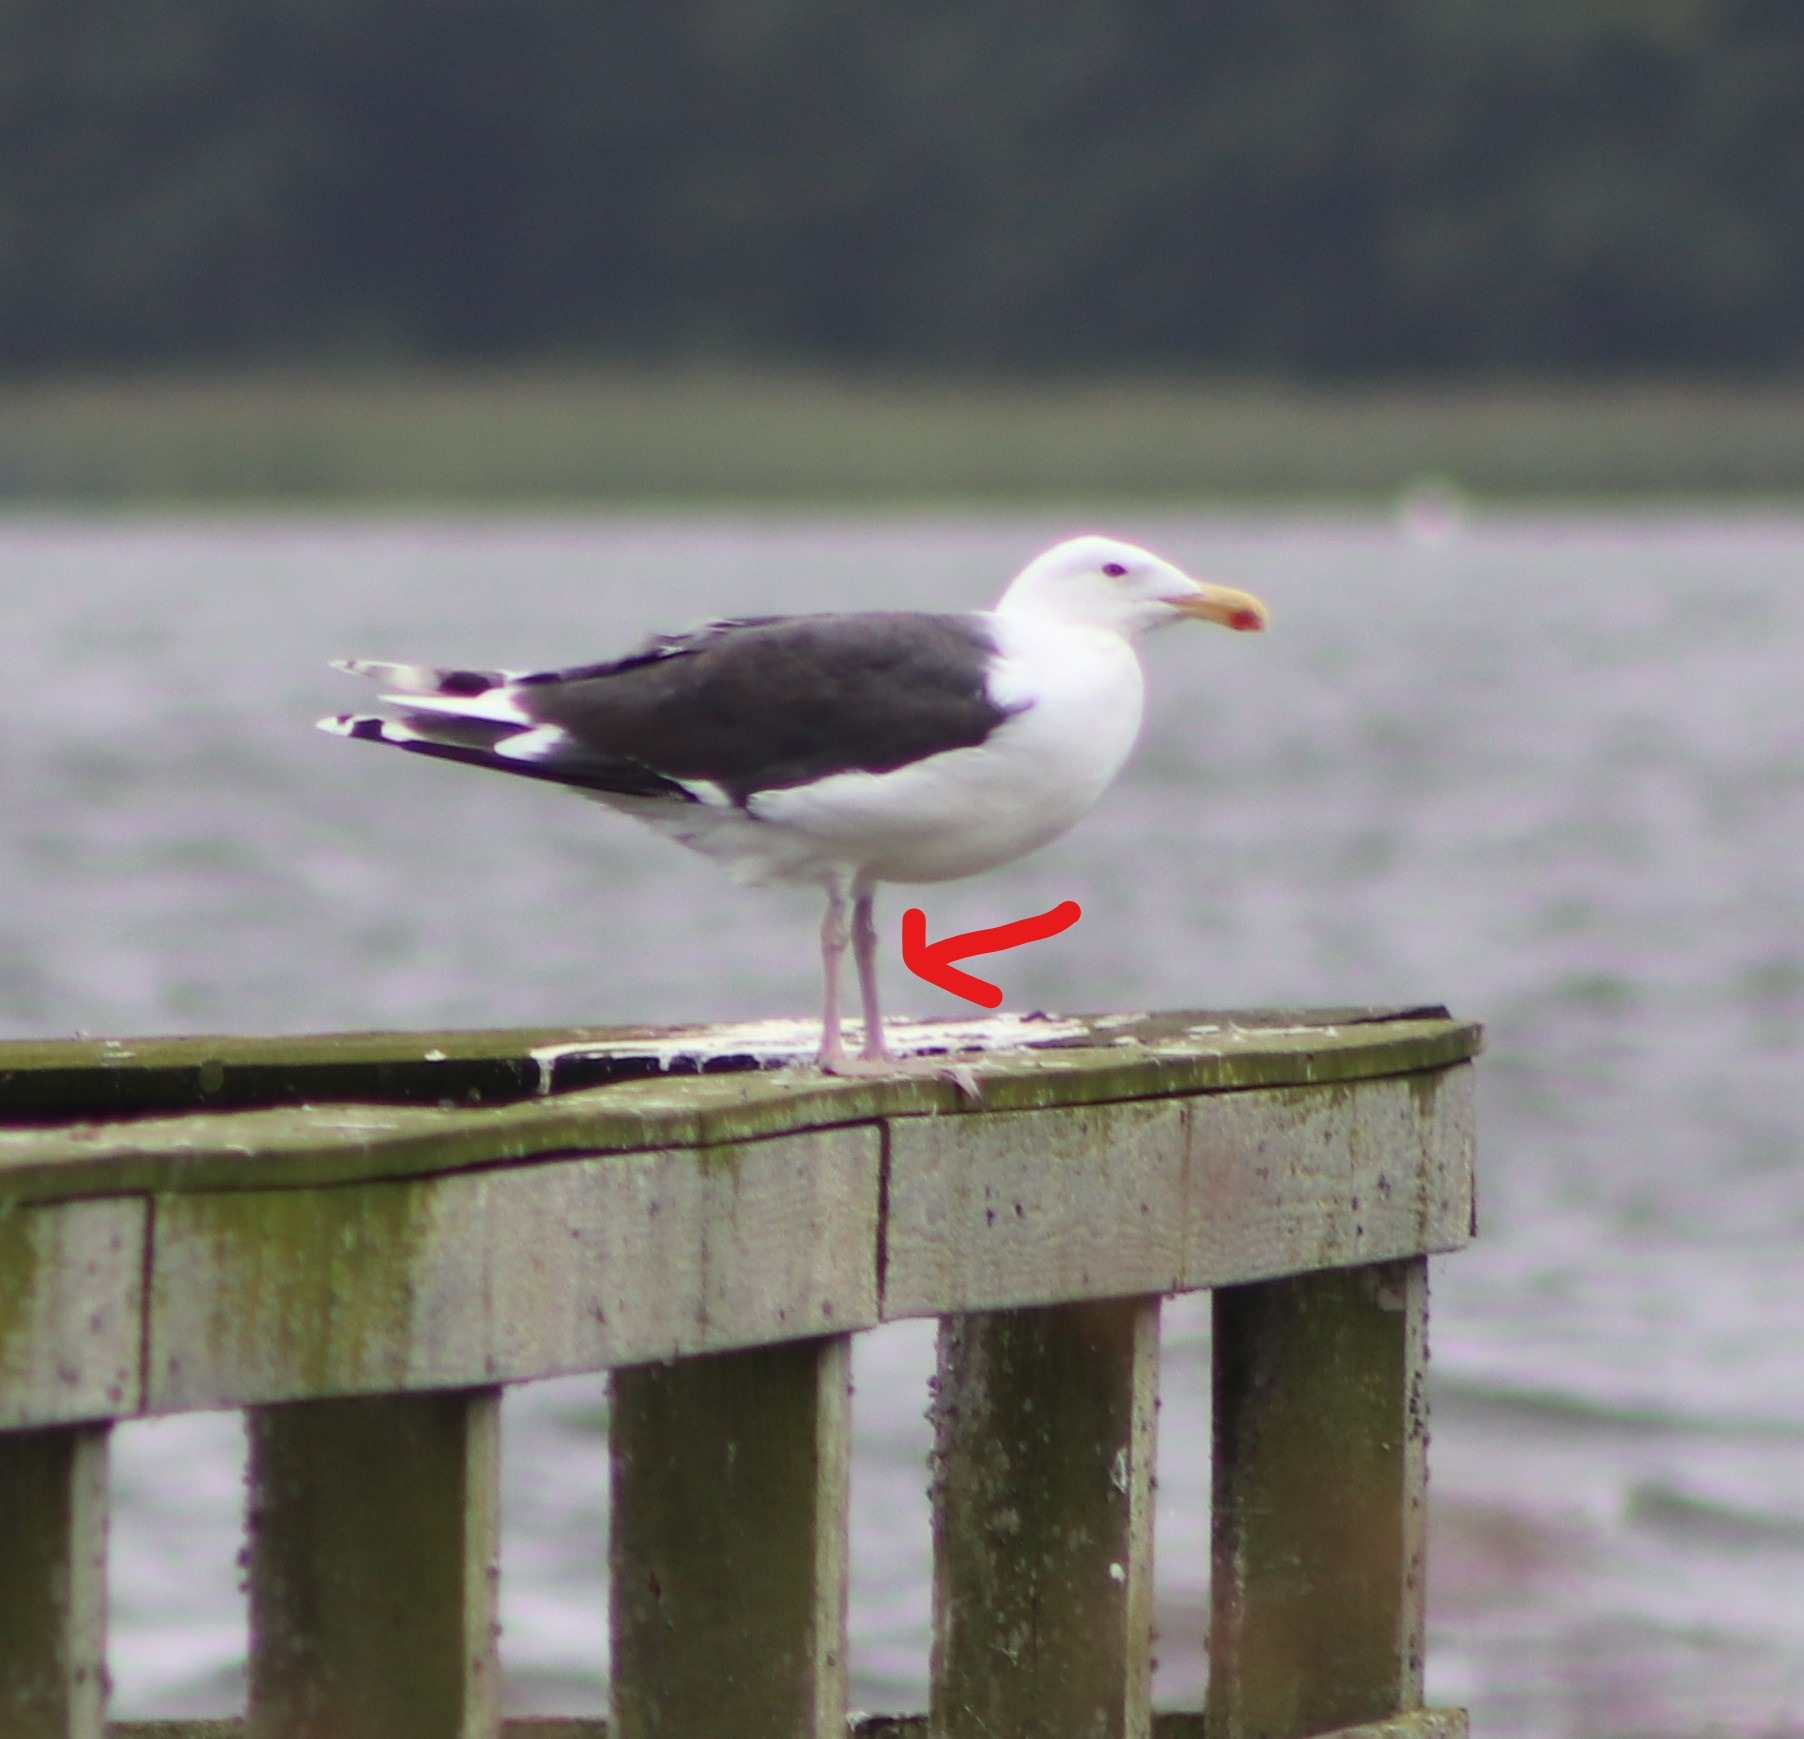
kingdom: Animalia
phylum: Chordata
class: Aves
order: Charadriiformes
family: Laridae
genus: Larus
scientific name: Larus marinus
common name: Svartbag
